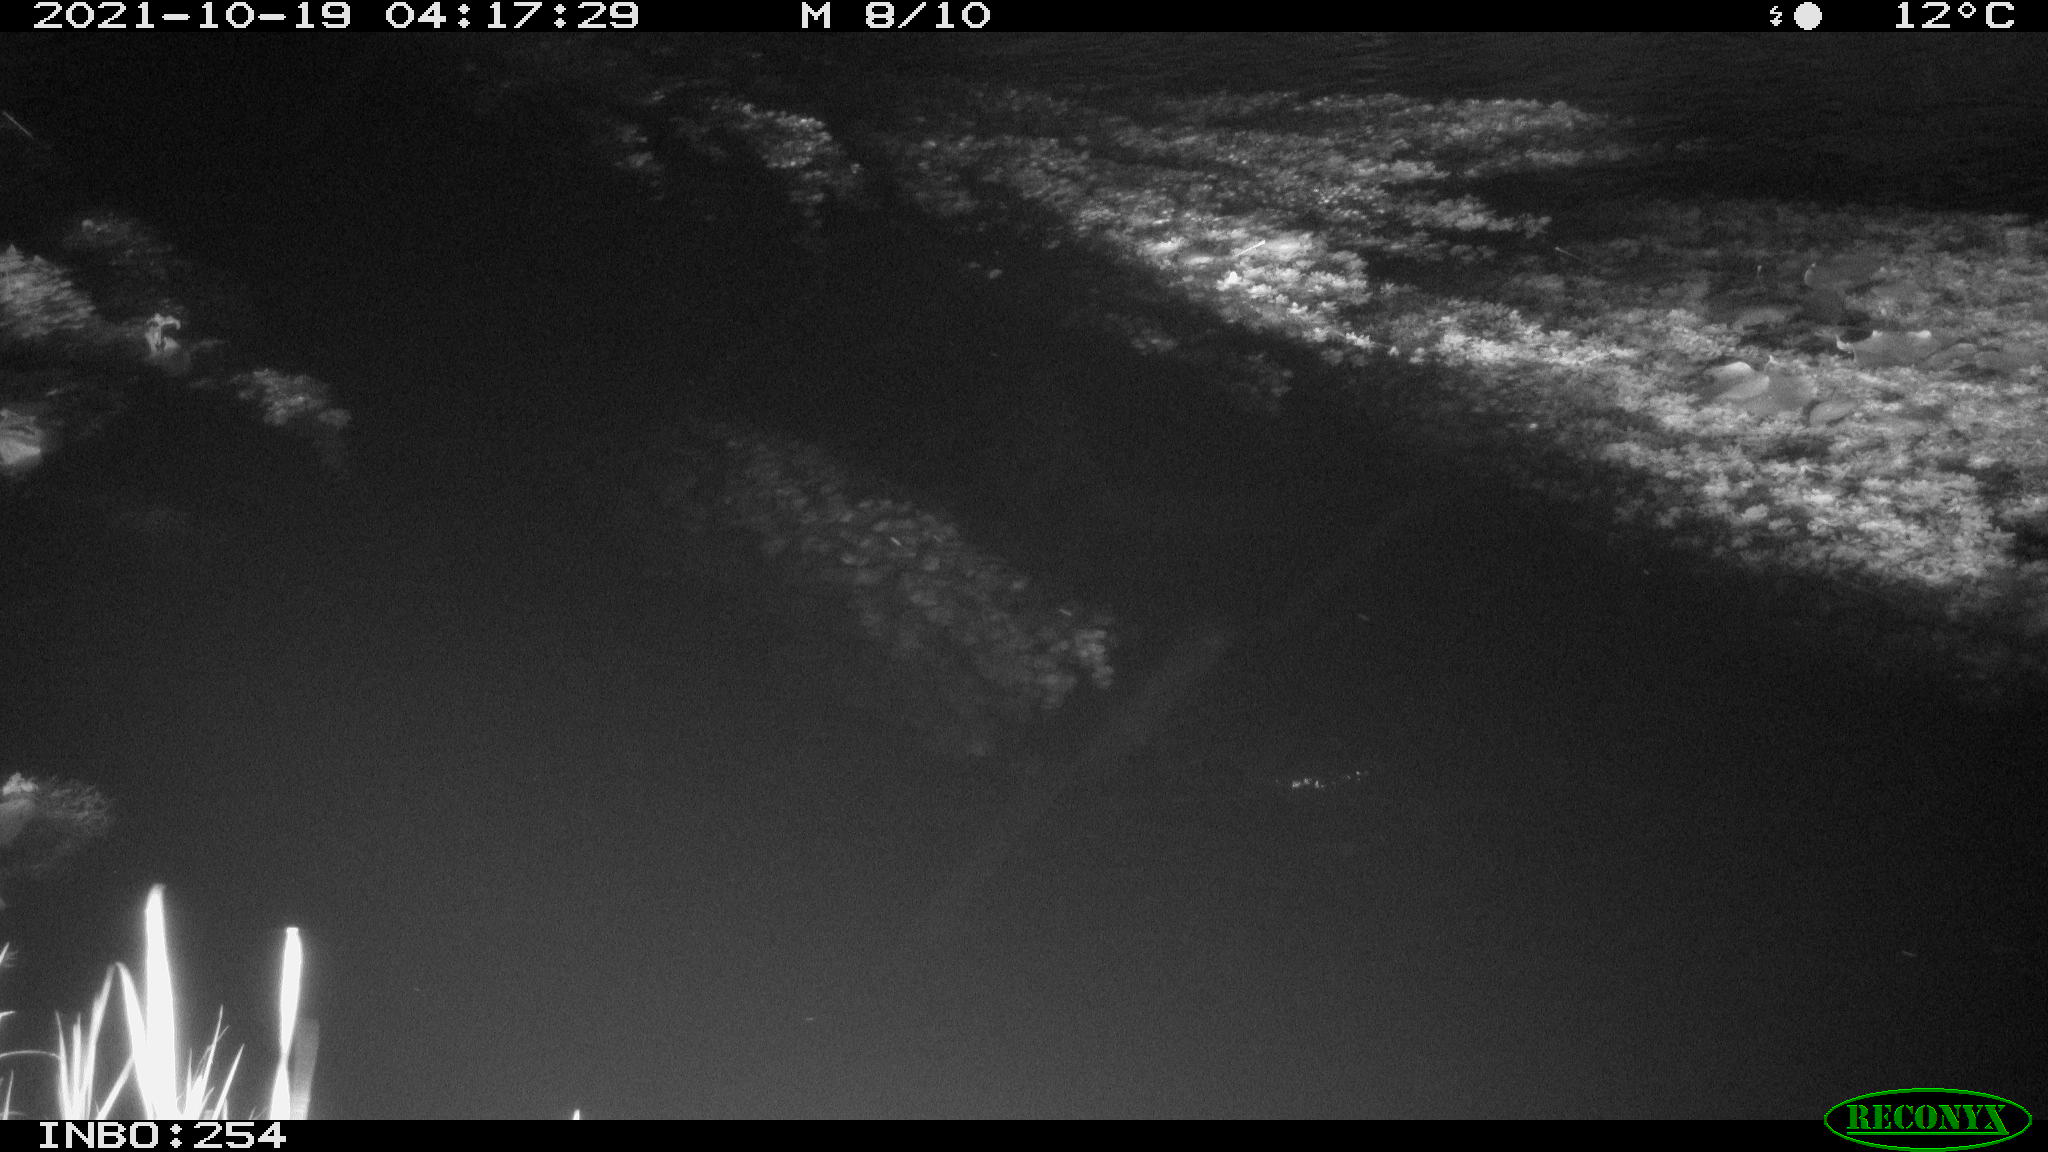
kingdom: Animalia
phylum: Chordata
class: Mammalia
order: Rodentia
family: Muridae
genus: Rattus
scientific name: Rattus norvegicus
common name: Brown rat
